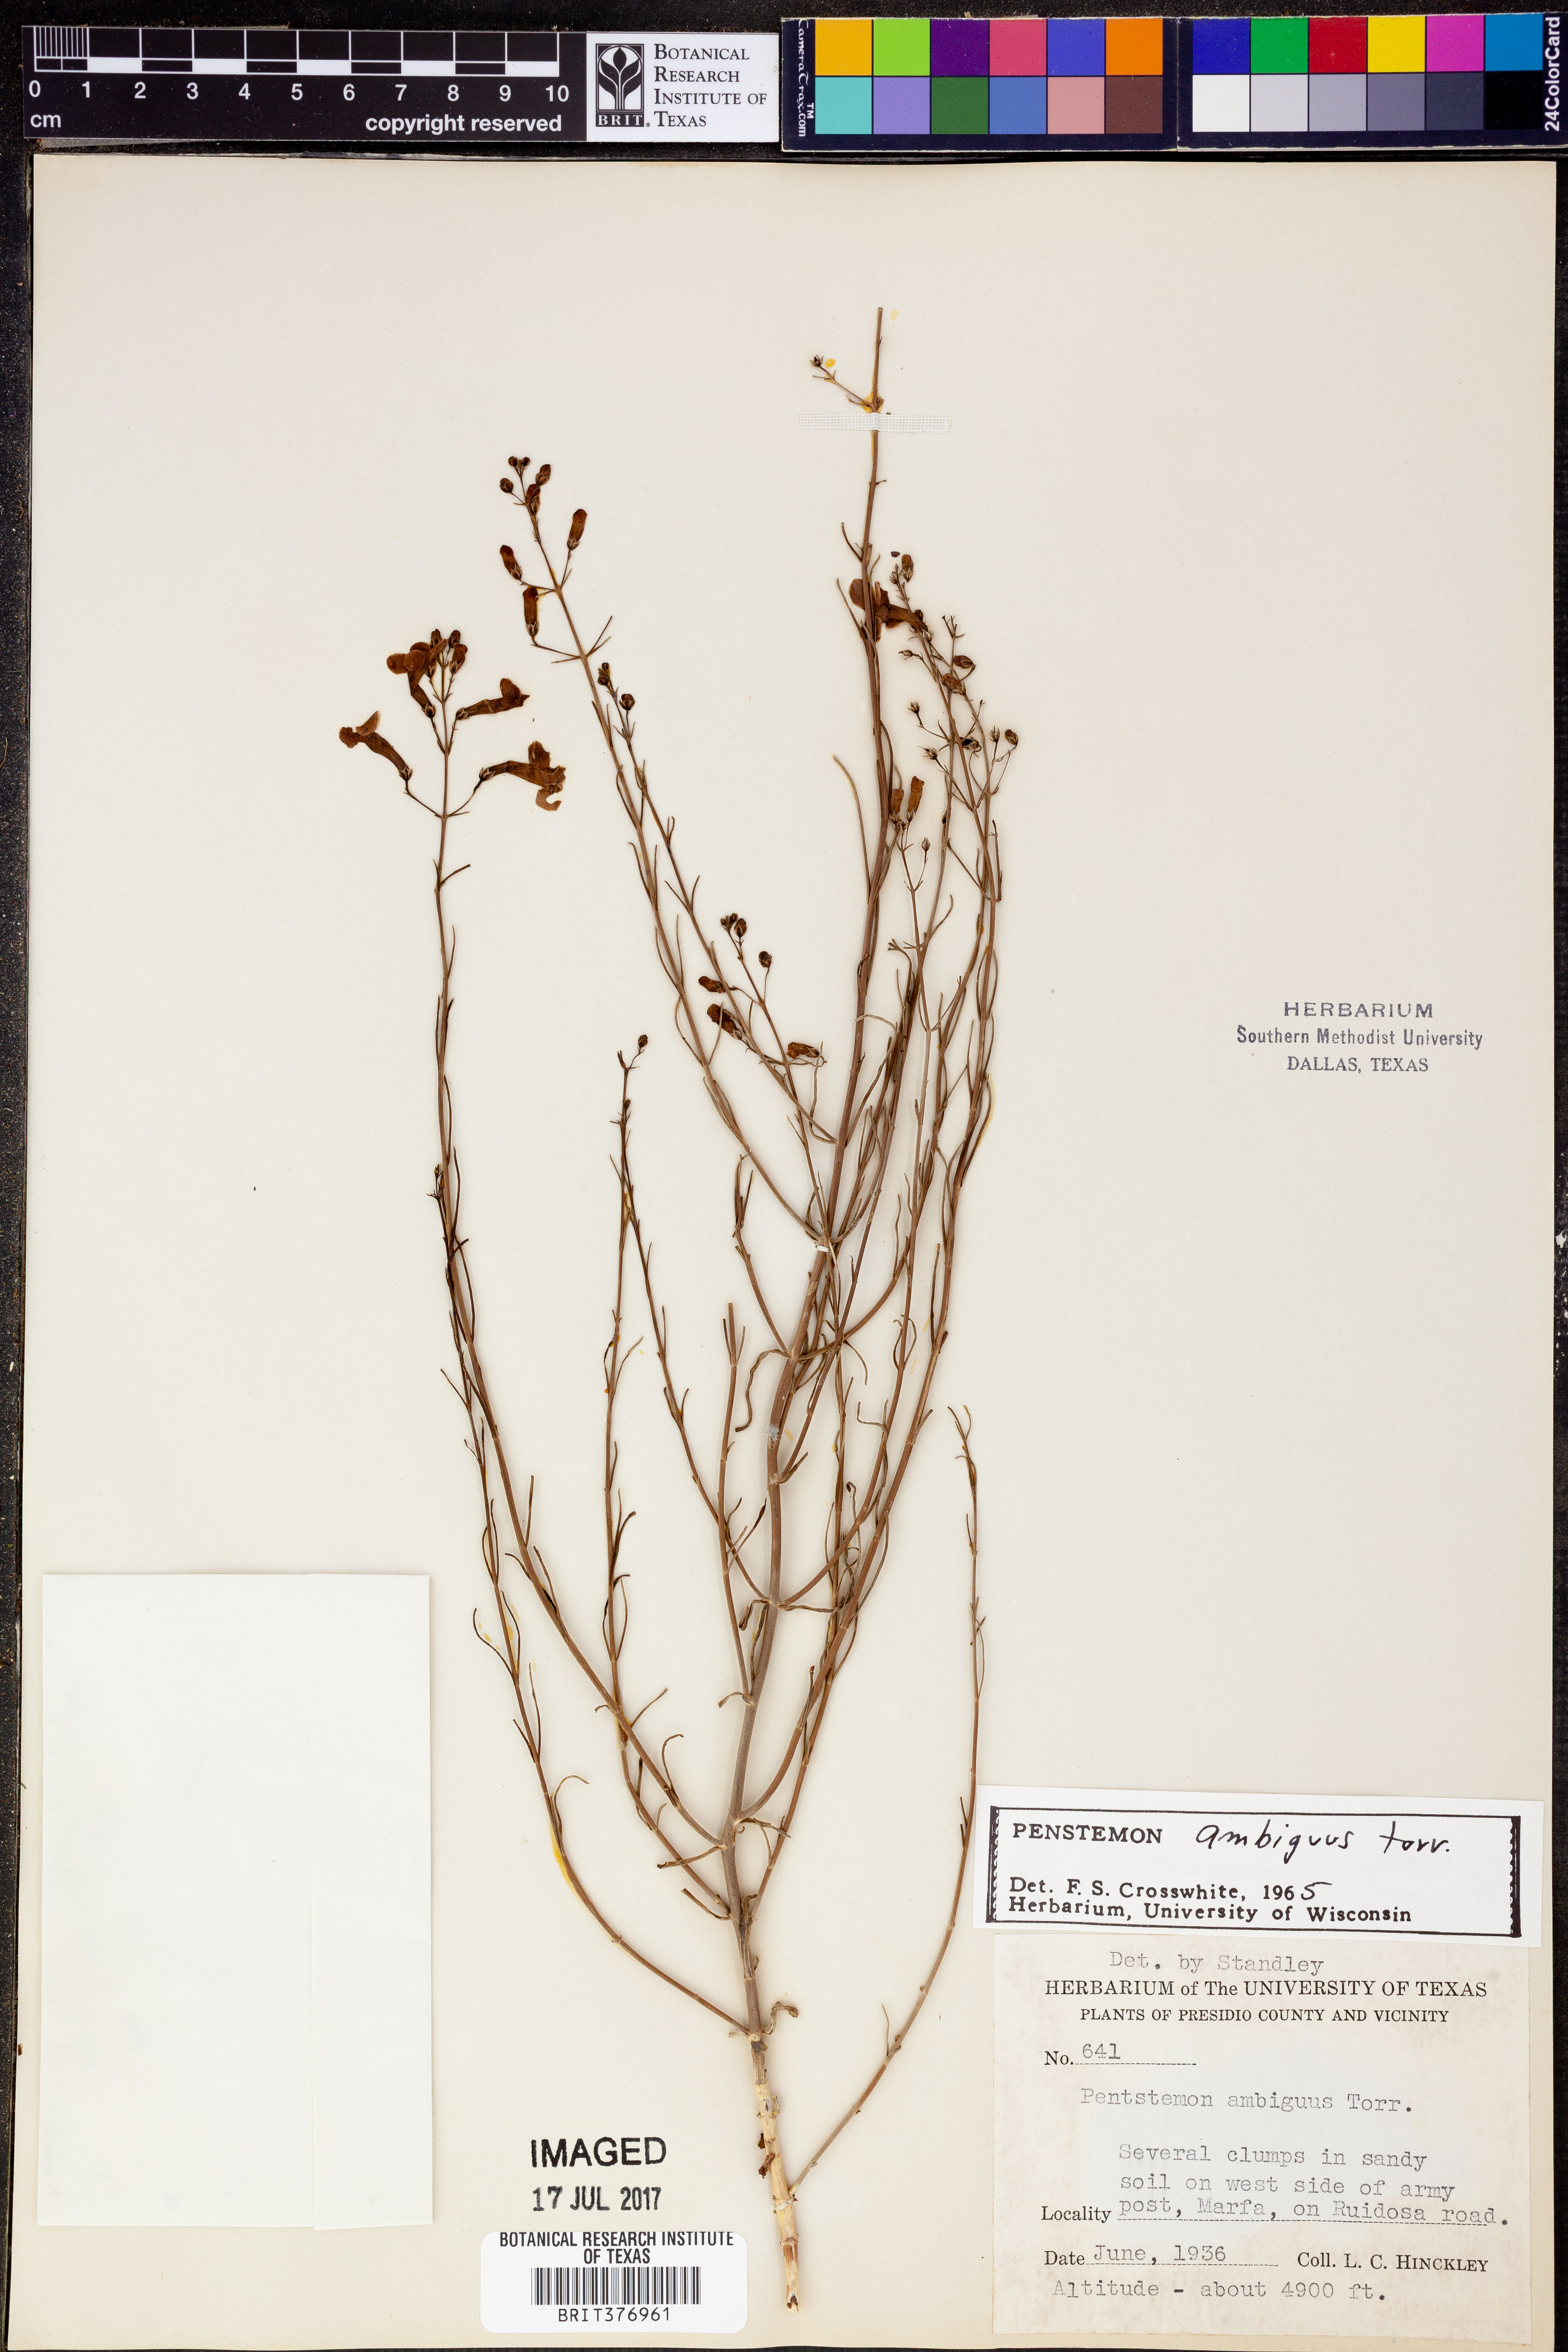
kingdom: Plantae
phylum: Tracheophyta
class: Magnoliopsida
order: Lamiales
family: Plantaginaceae
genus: Penstemon
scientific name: Penstemon ambiguus
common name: Bush penstemon
